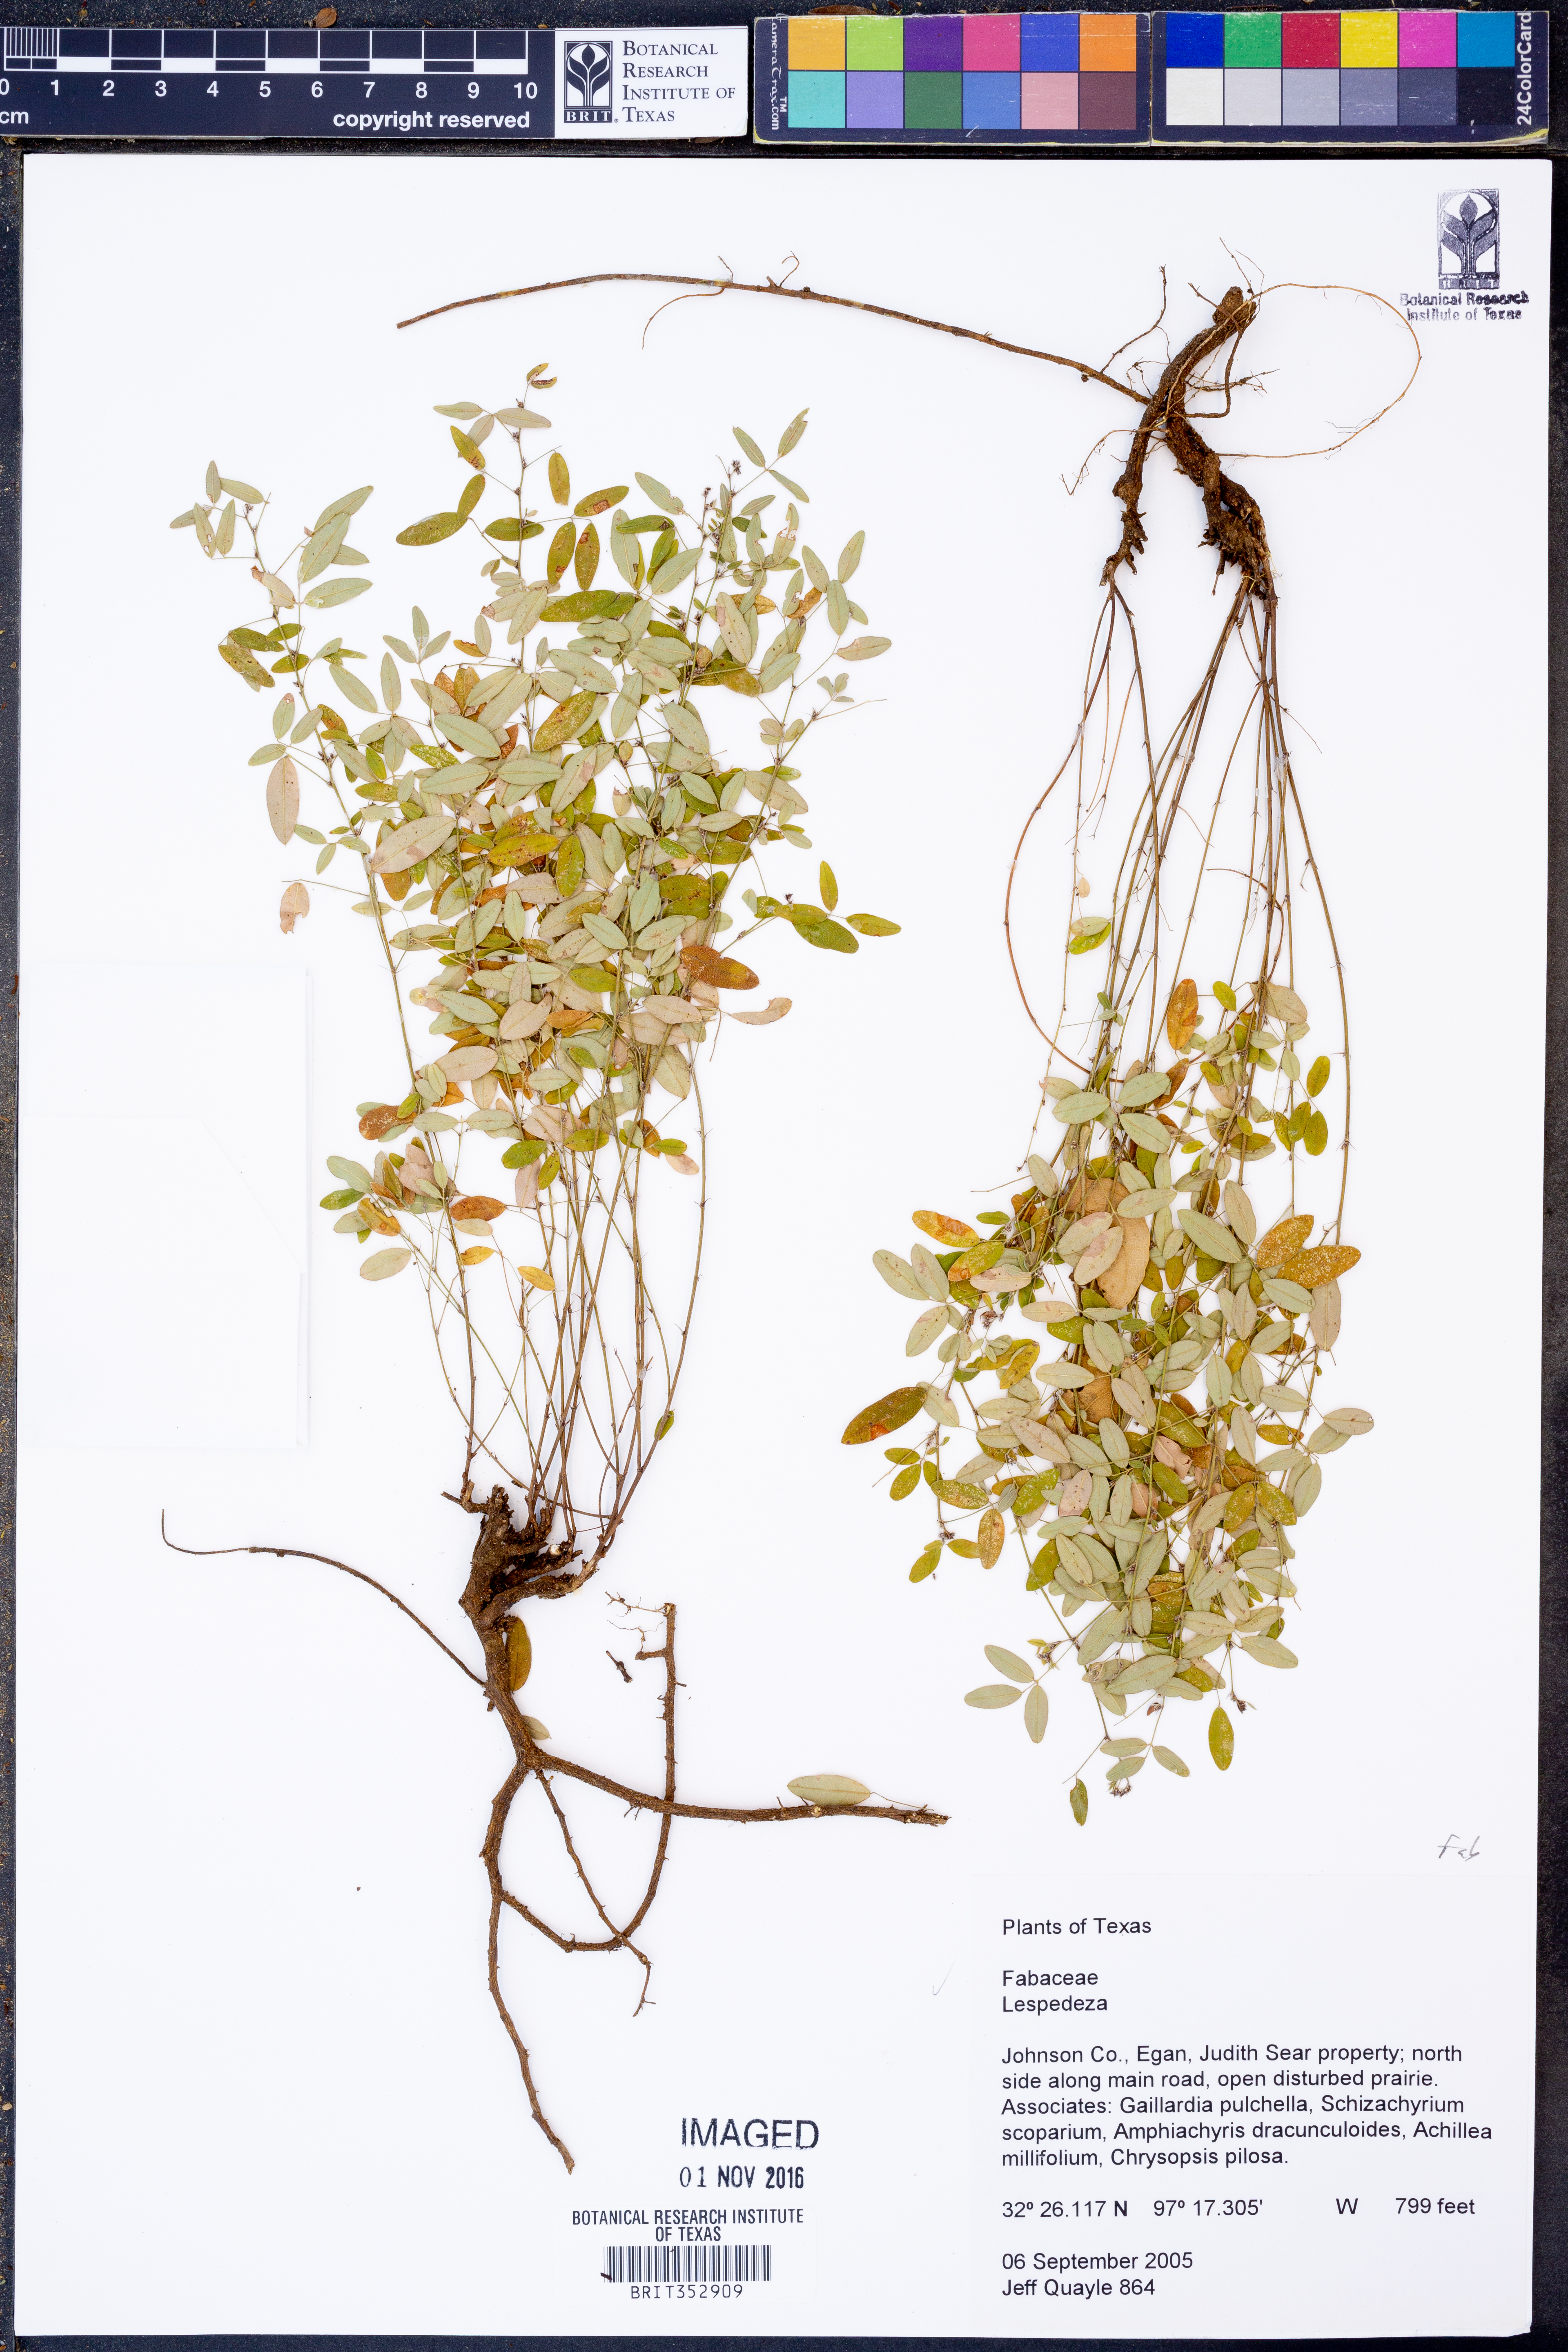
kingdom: Plantae
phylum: Tracheophyta
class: Magnoliopsida
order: Fabales
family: Fabaceae
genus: Lespedeza
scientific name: Lespedeza
